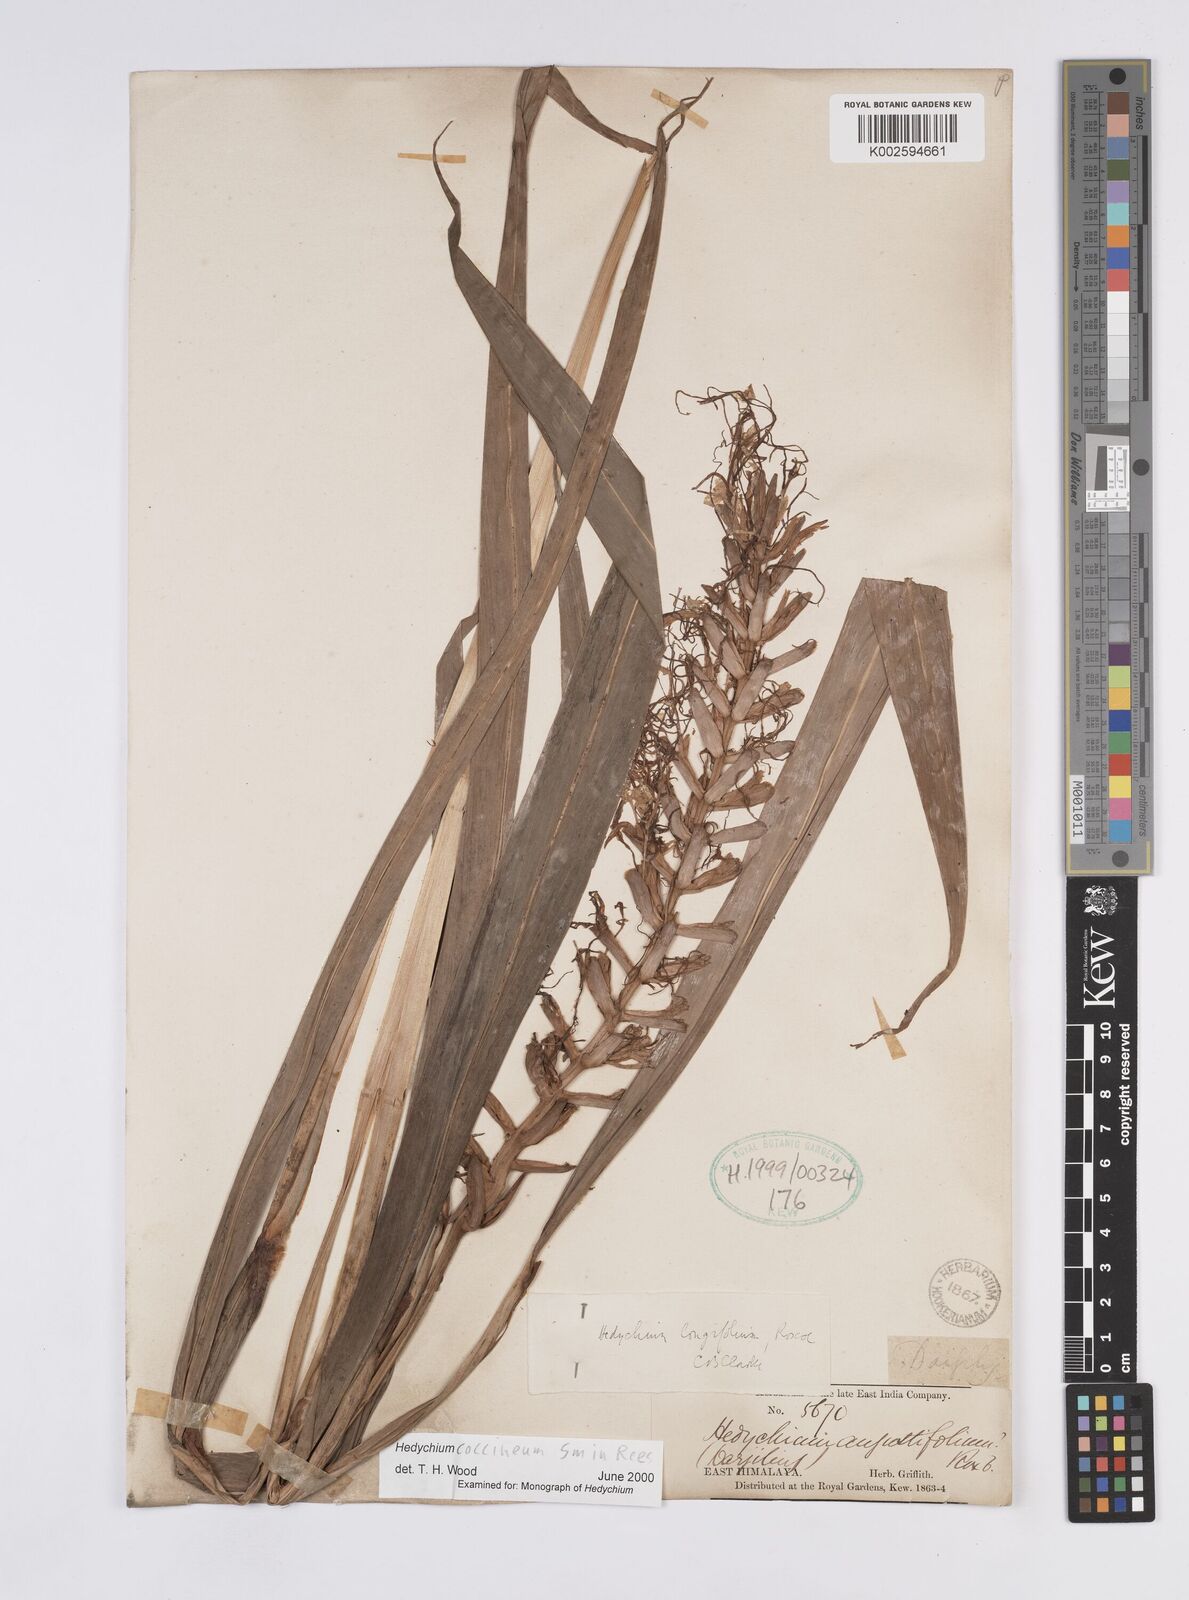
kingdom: Plantae
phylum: Tracheophyta
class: Liliopsida
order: Zingiberales
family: Zingiberaceae
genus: Hedychium
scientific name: Hedychium coccineum
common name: Red ginger-lily
